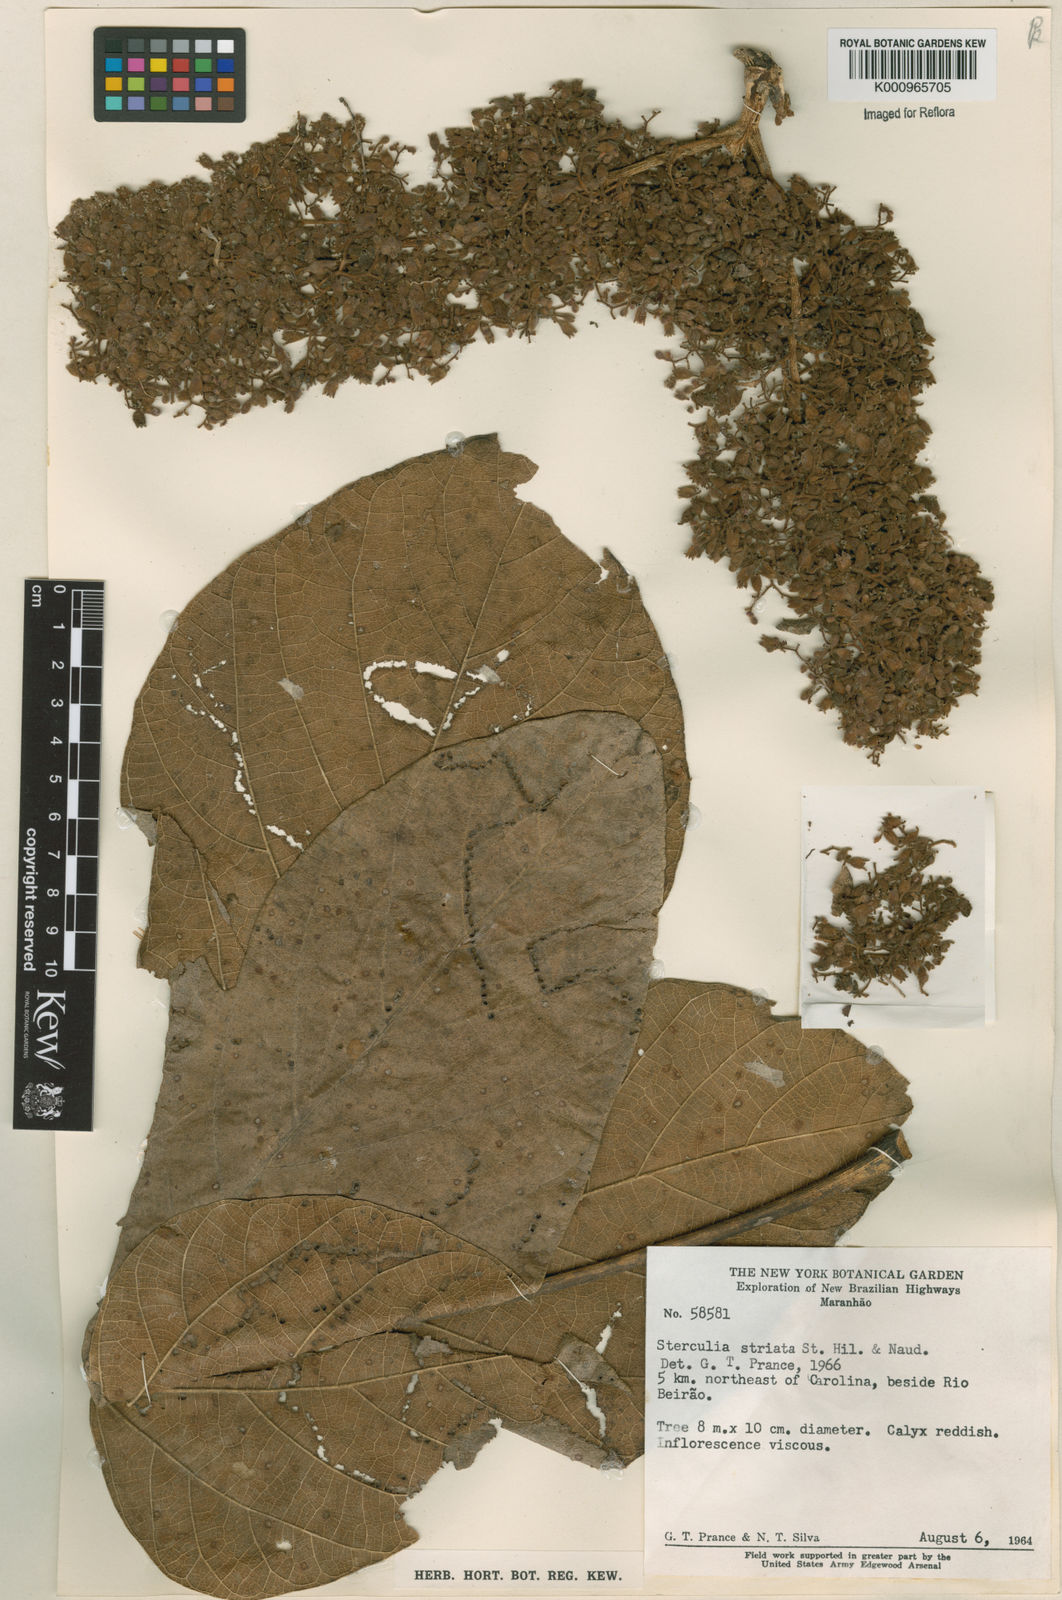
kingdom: Plantae
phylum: Tracheophyta
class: Magnoliopsida
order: Malvales
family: Malvaceae
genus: Sterculia
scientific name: Sterculia striata
